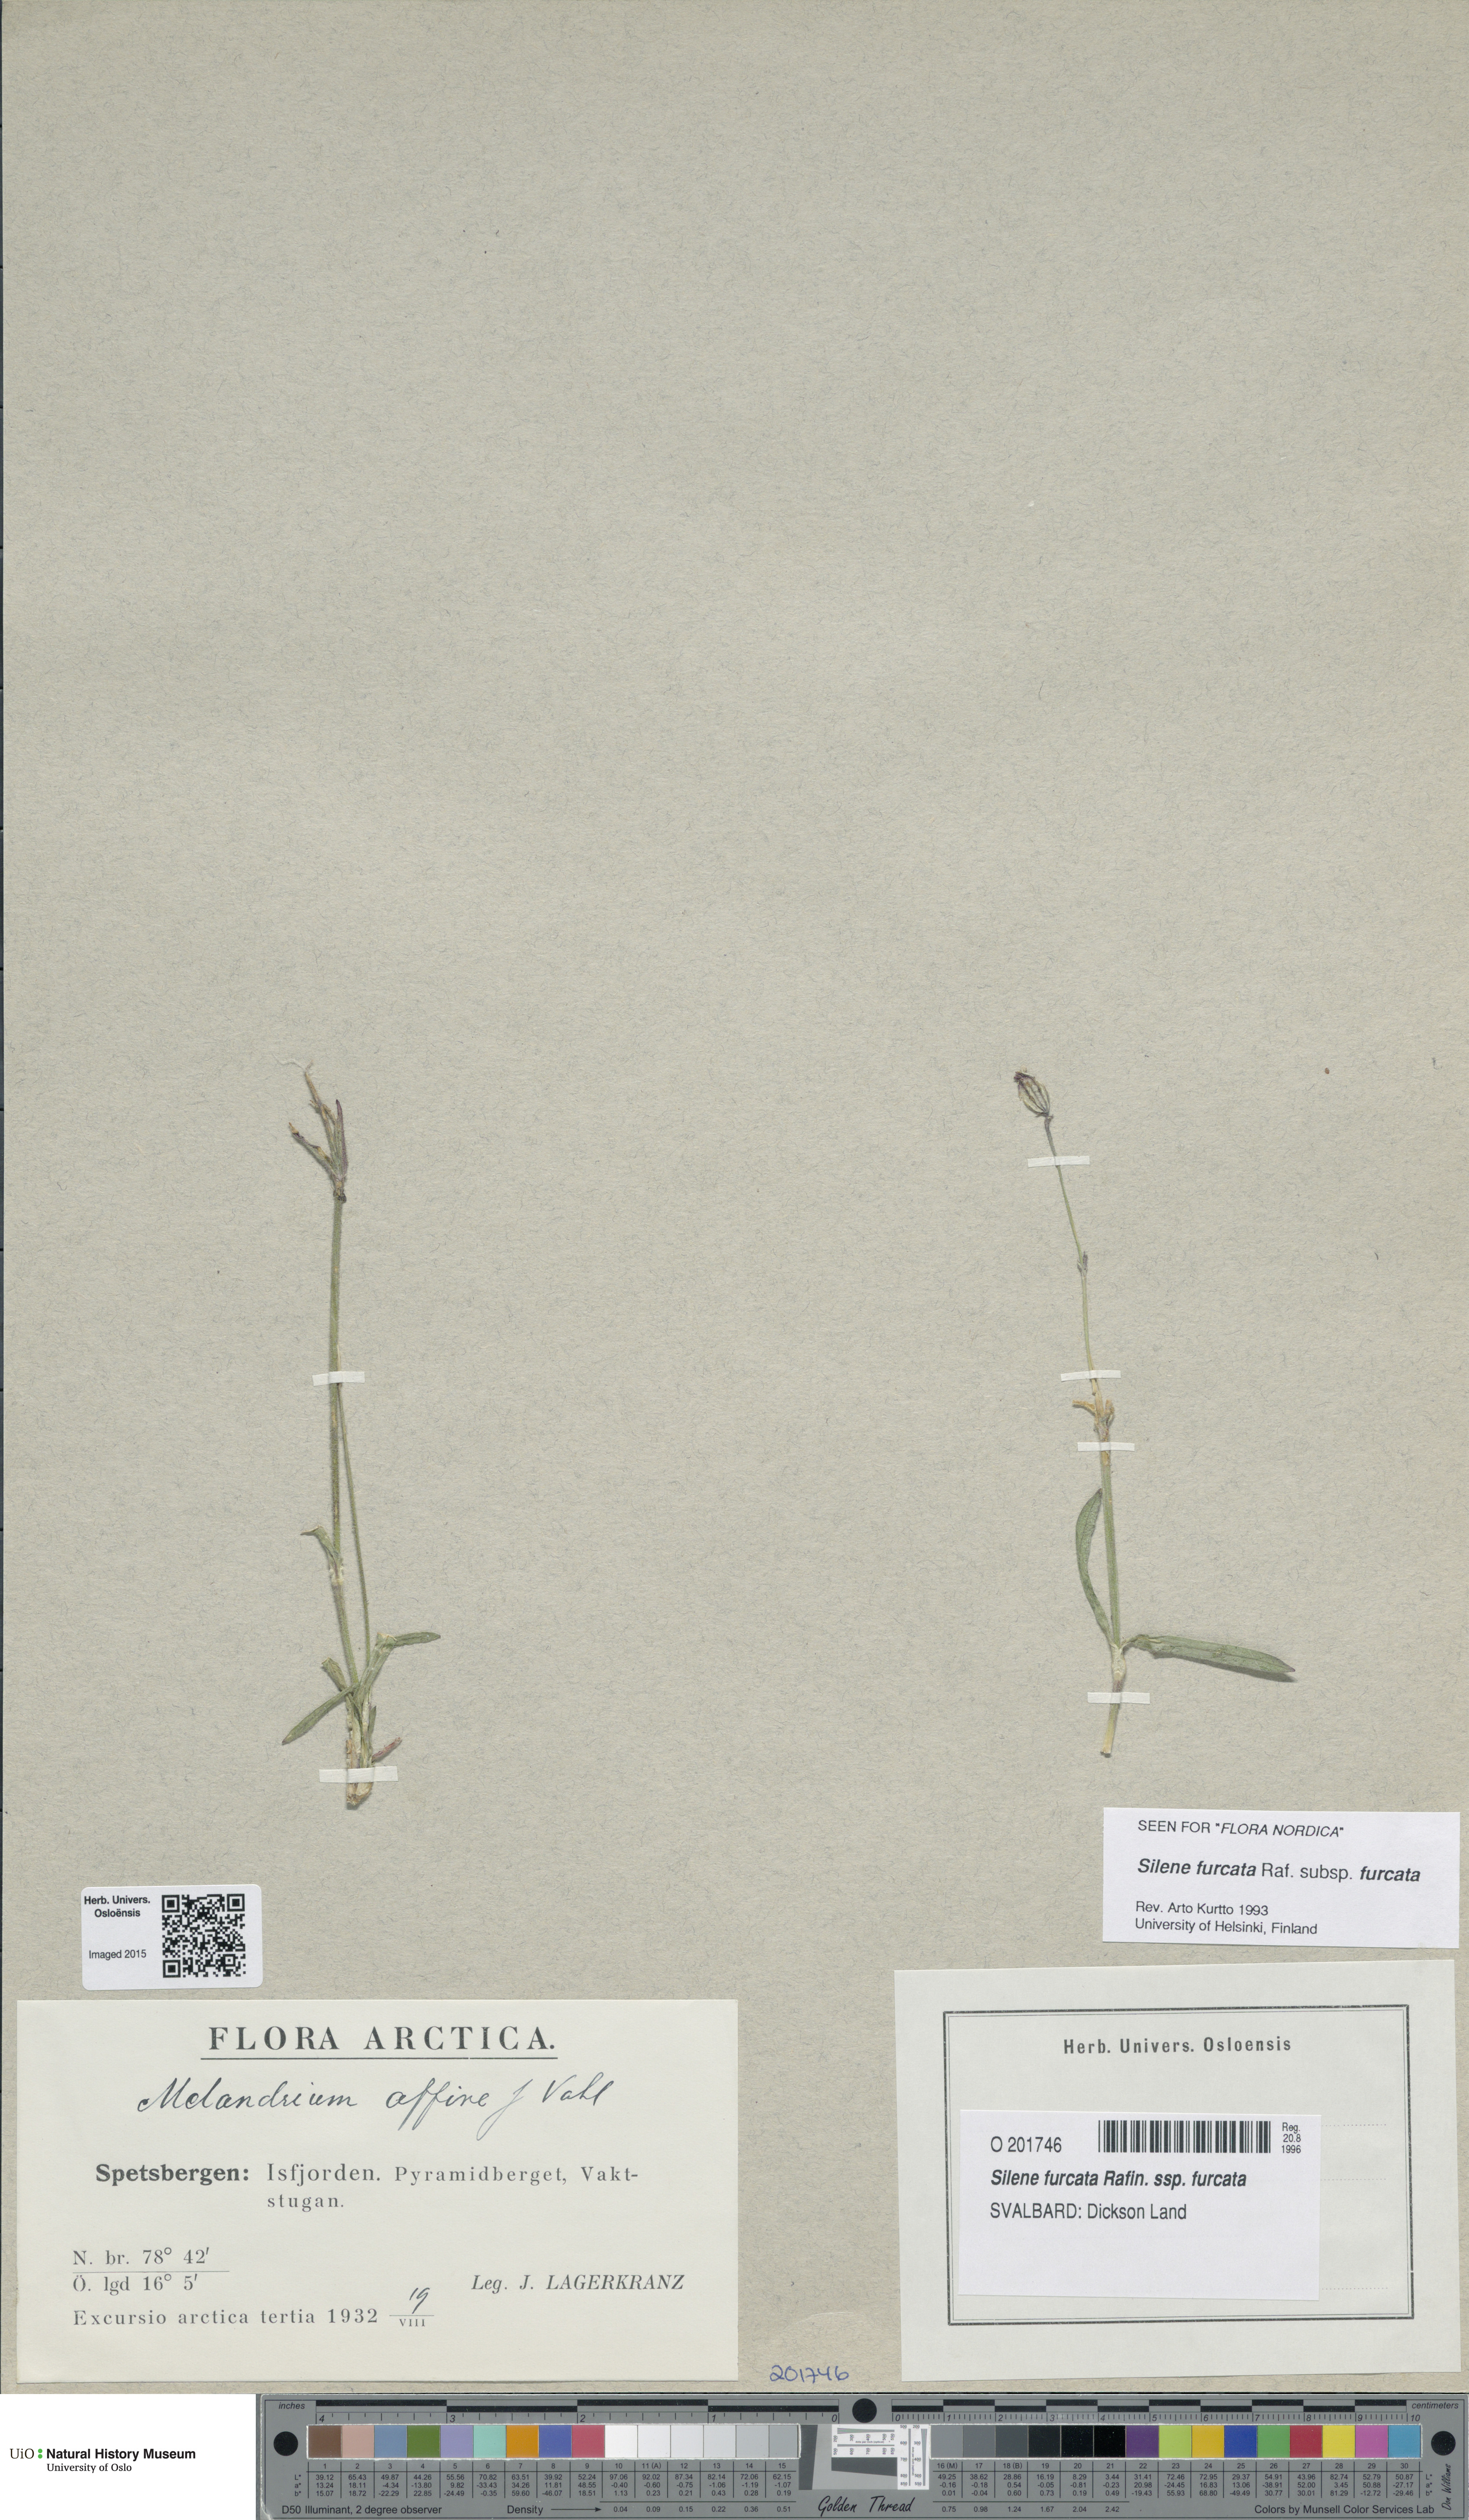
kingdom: Plantae
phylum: Tracheophyta
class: Magnoliopsida
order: Caryophyllales
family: Caryophyllaceae
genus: Silene
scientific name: Silene involucrata
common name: Greater arctic campion
